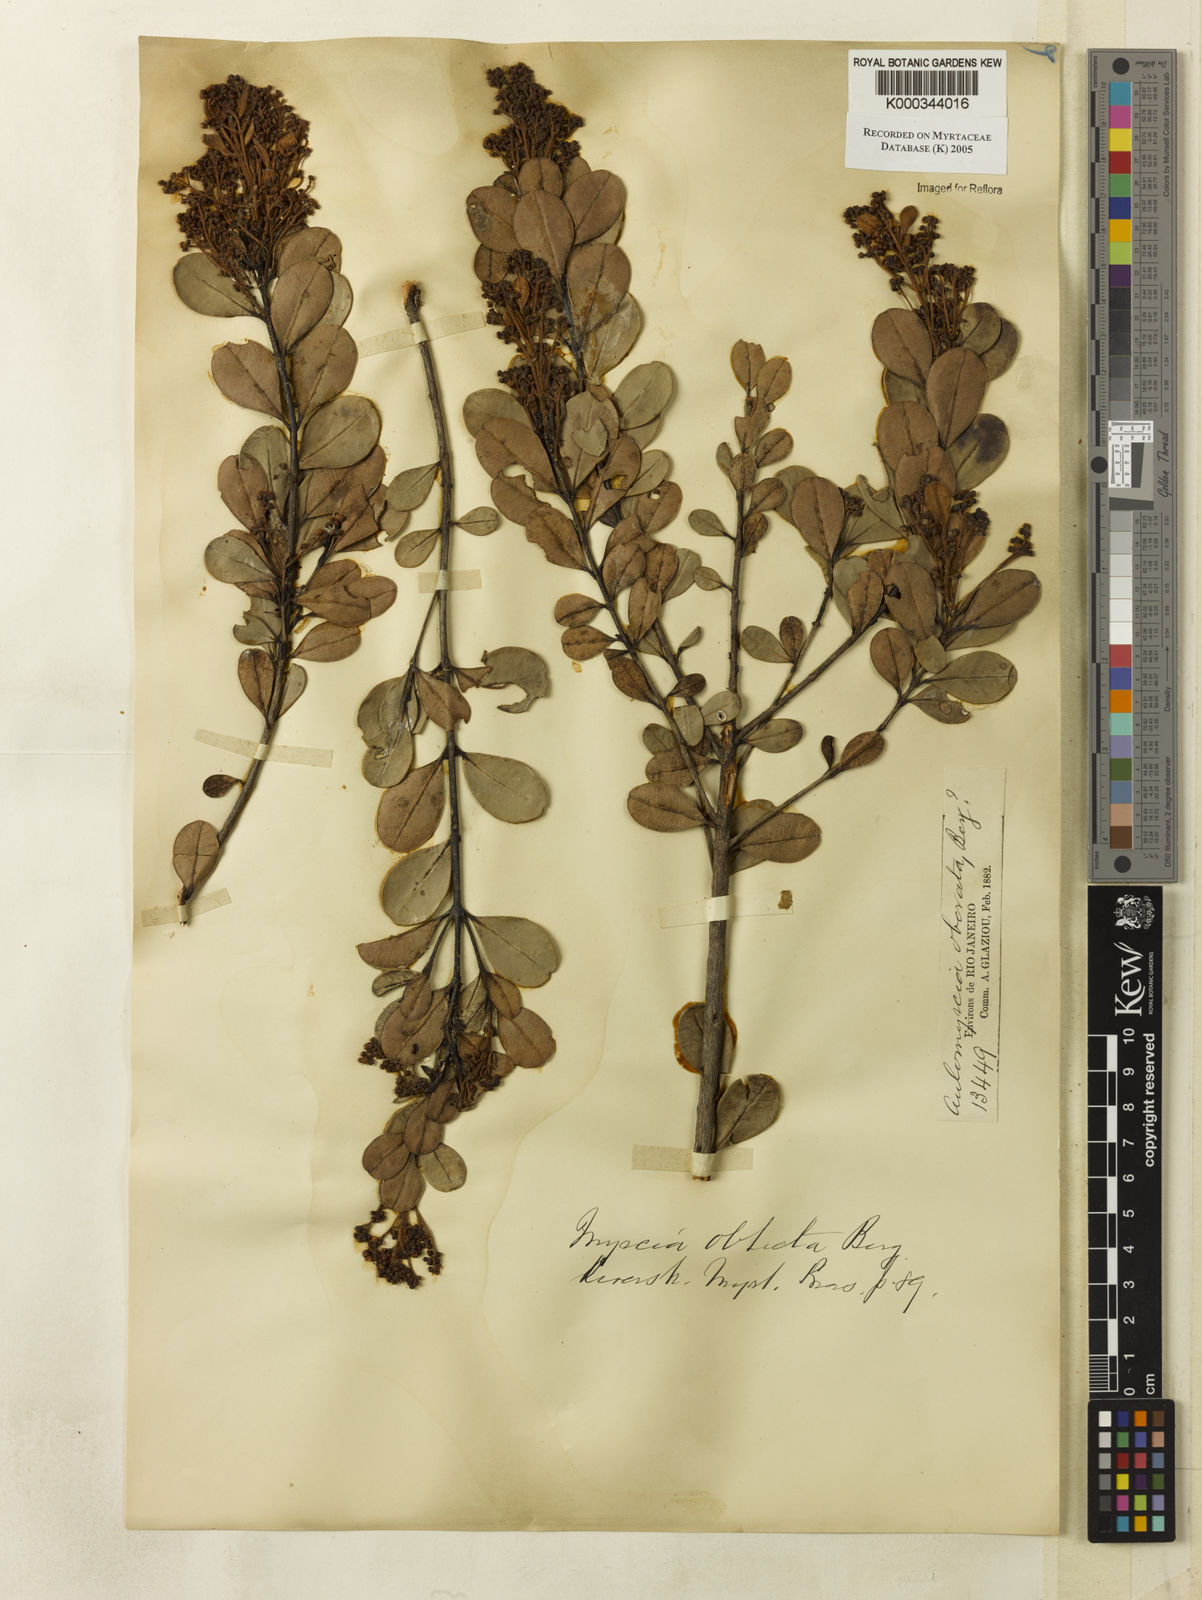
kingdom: Plantae
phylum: Tracheophyta
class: Magnoliopsida
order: Myrtales
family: Myrtaceae
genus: Myrcia
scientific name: Myrcia guianensis
